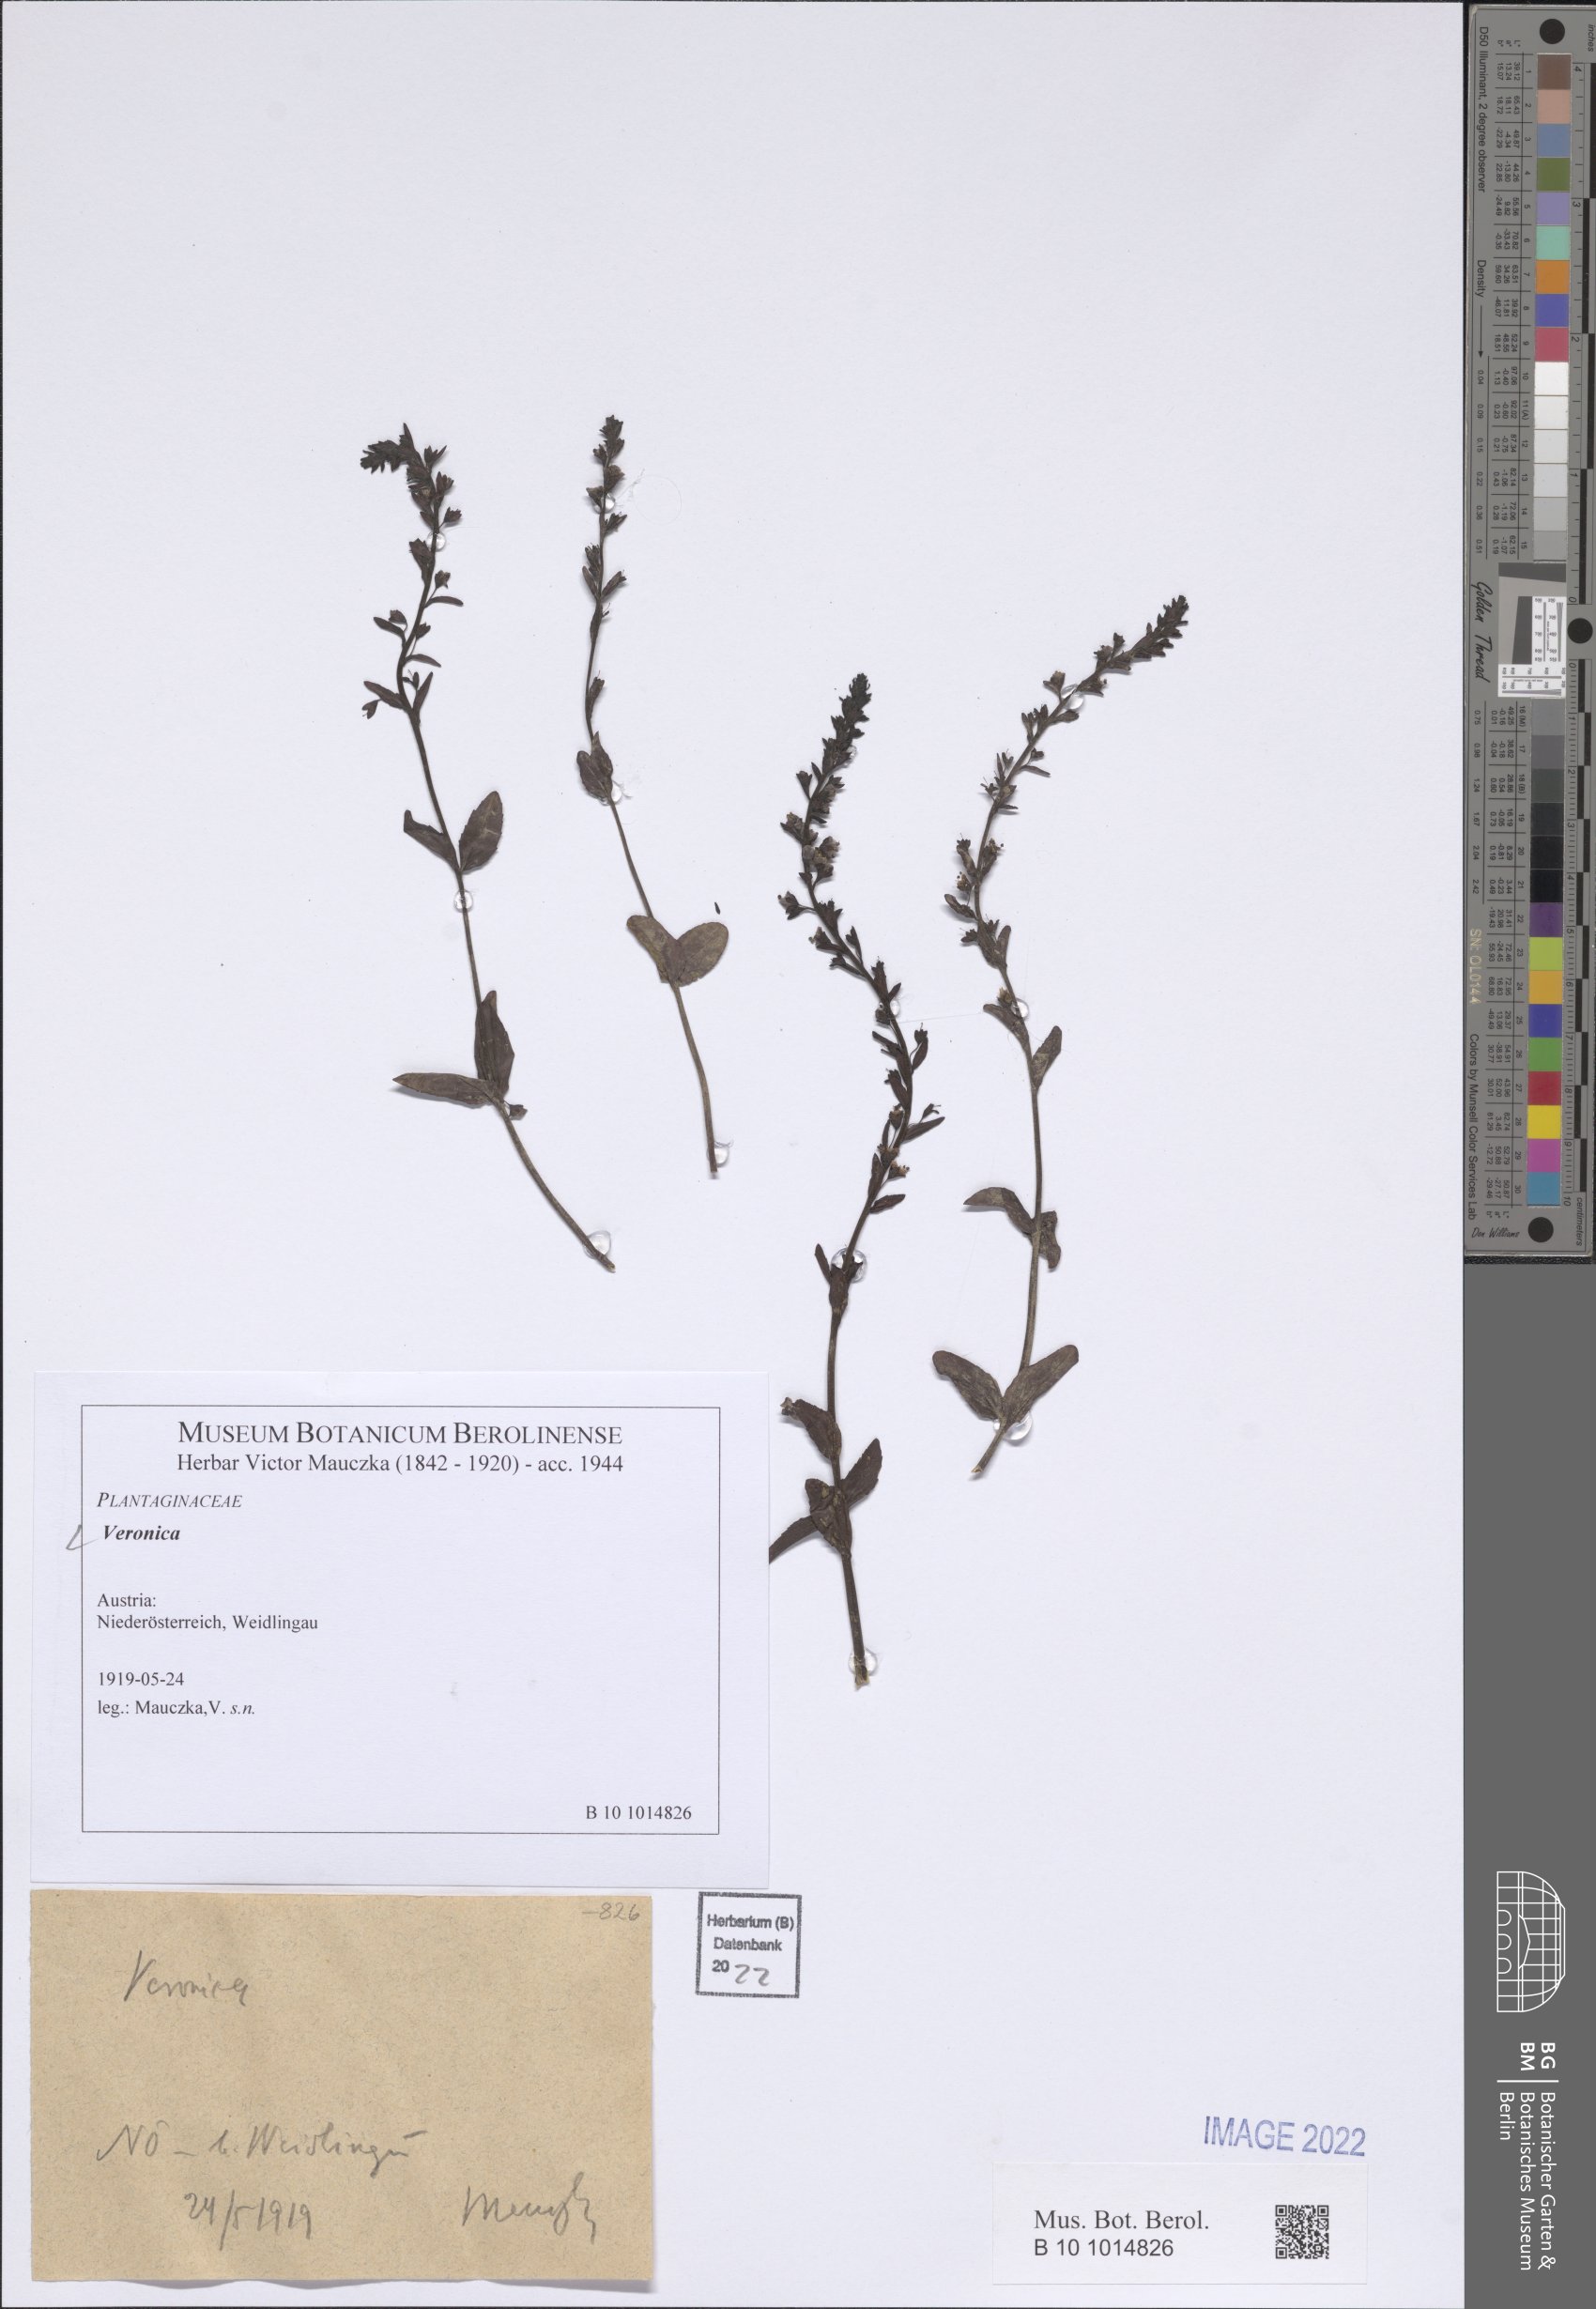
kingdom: Plantae
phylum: Tracheophyta
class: Magnoliopsida
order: Lamiales
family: Plantaginaceae
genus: Veronica
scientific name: Veronica
